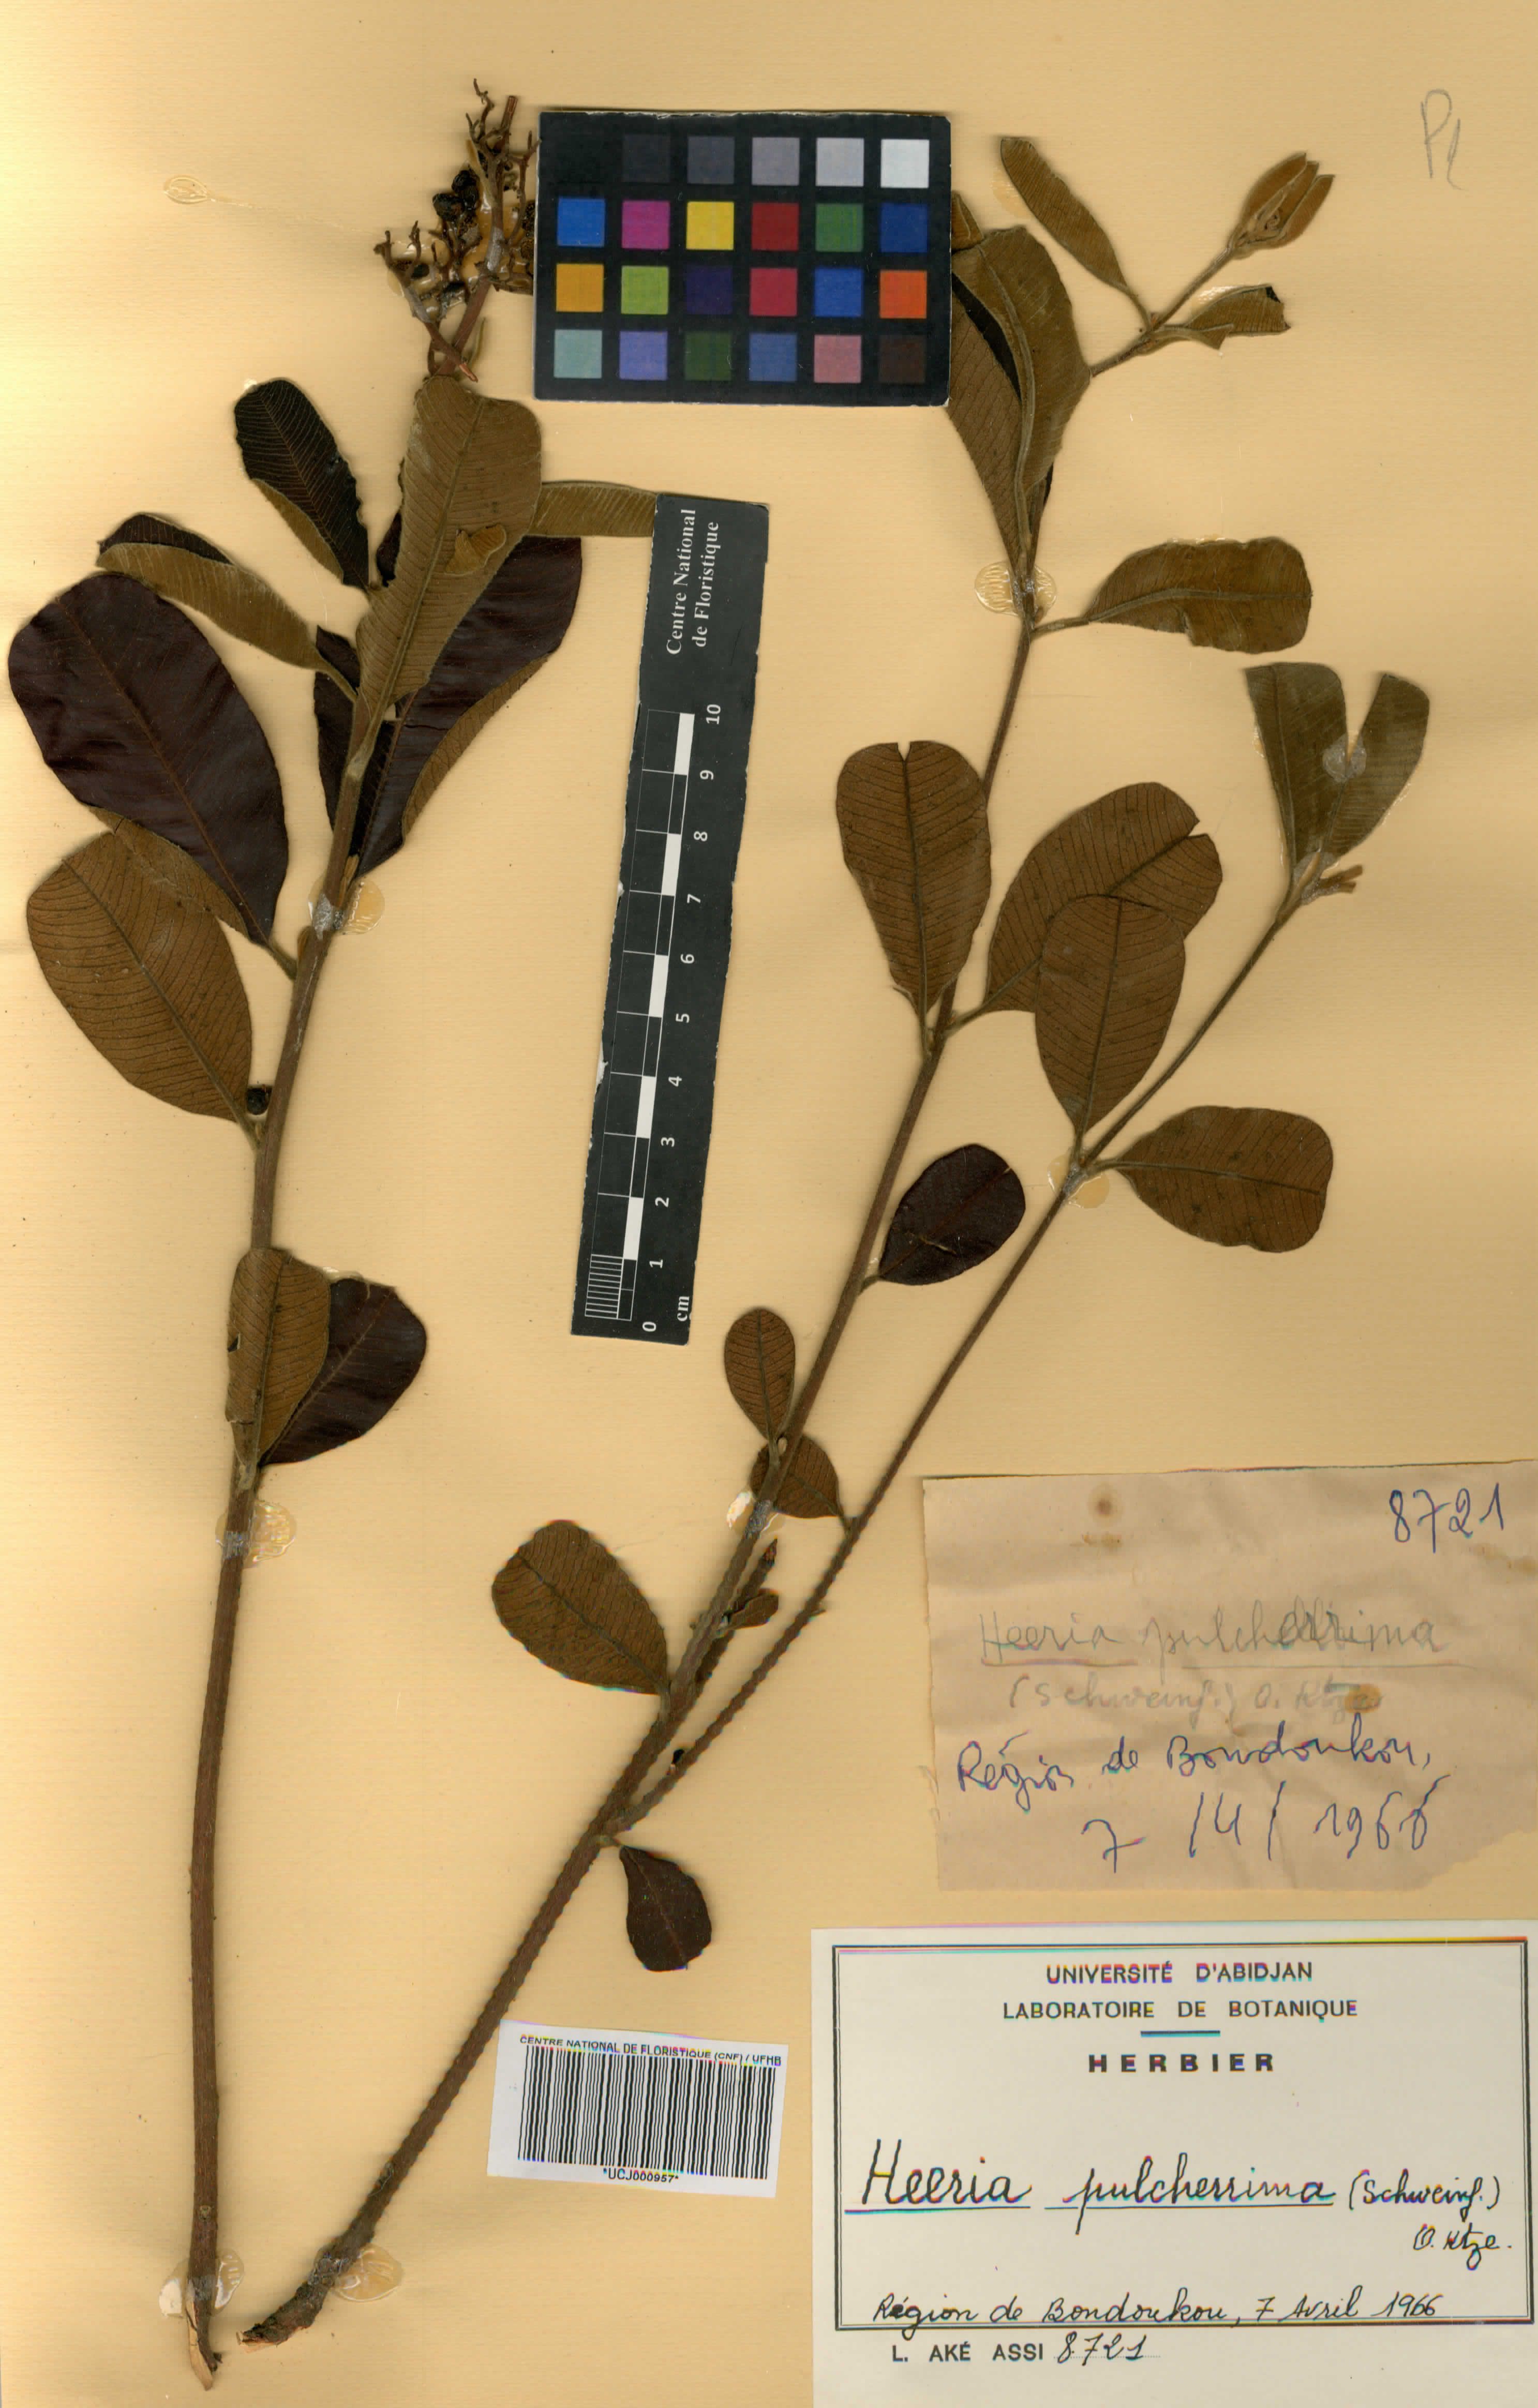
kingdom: Plantae
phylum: Tracheophyta
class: Magnoliopsida
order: Sapindales
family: Anacardiaceae
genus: Ozoroa
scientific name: Ozoroa pulcherrima
